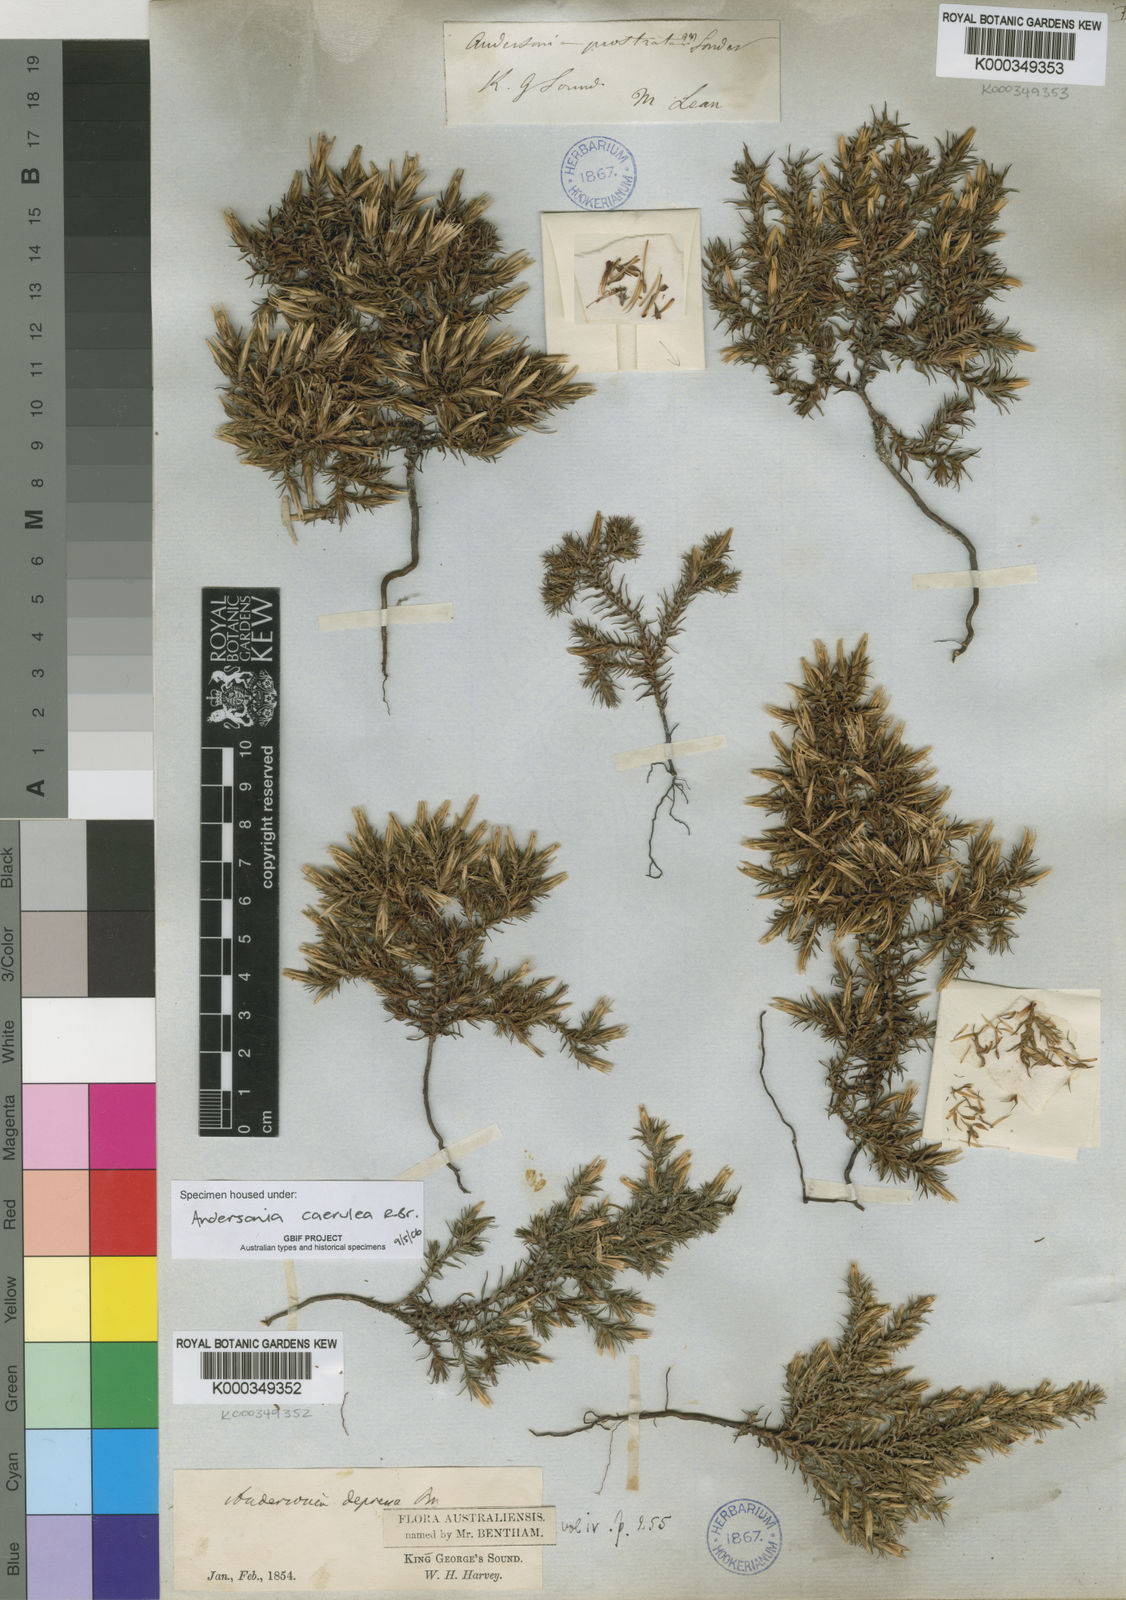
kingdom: Plantae
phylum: Tracheophyta
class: Magnoliopsida
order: Ericales
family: Ericaceae
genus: Andersonia
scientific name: Andersonia caerulea
